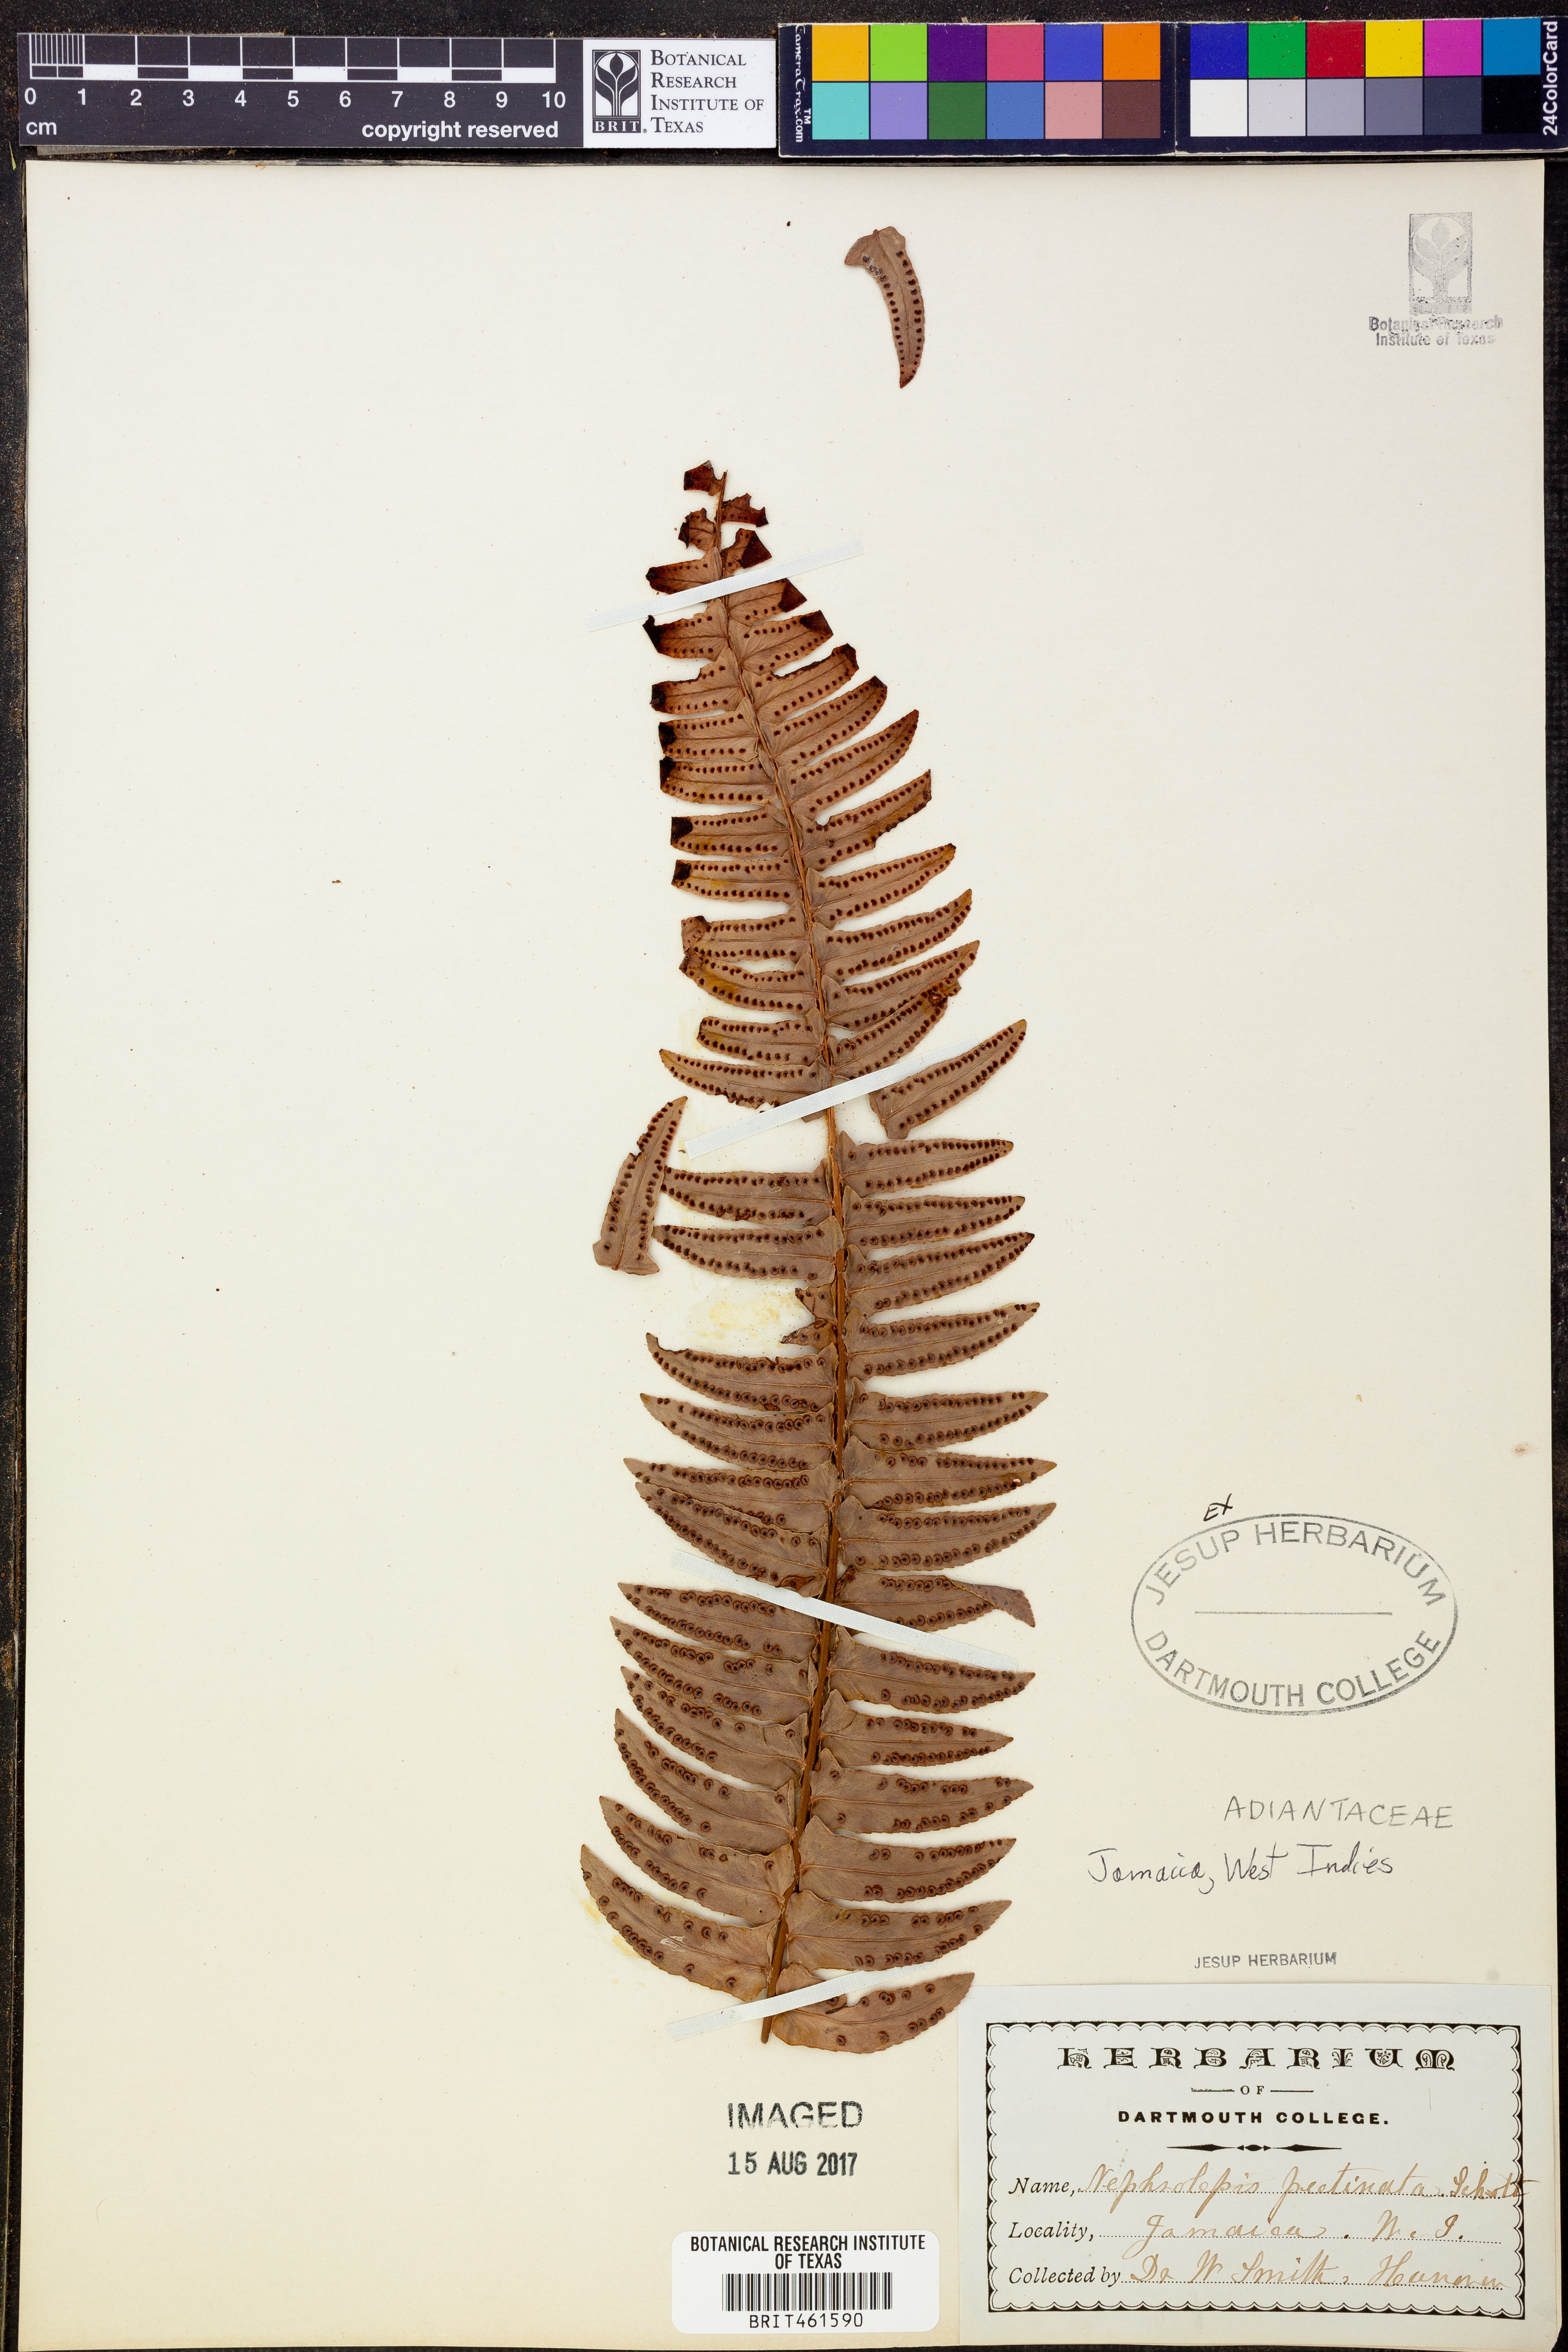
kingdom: Plantae
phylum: Tracheophyta
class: Polypodiopsida
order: Polypodiales
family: Nephrolepidaceae
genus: Nephrolepis
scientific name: Nephrolepis pectinata
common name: Basket fern
